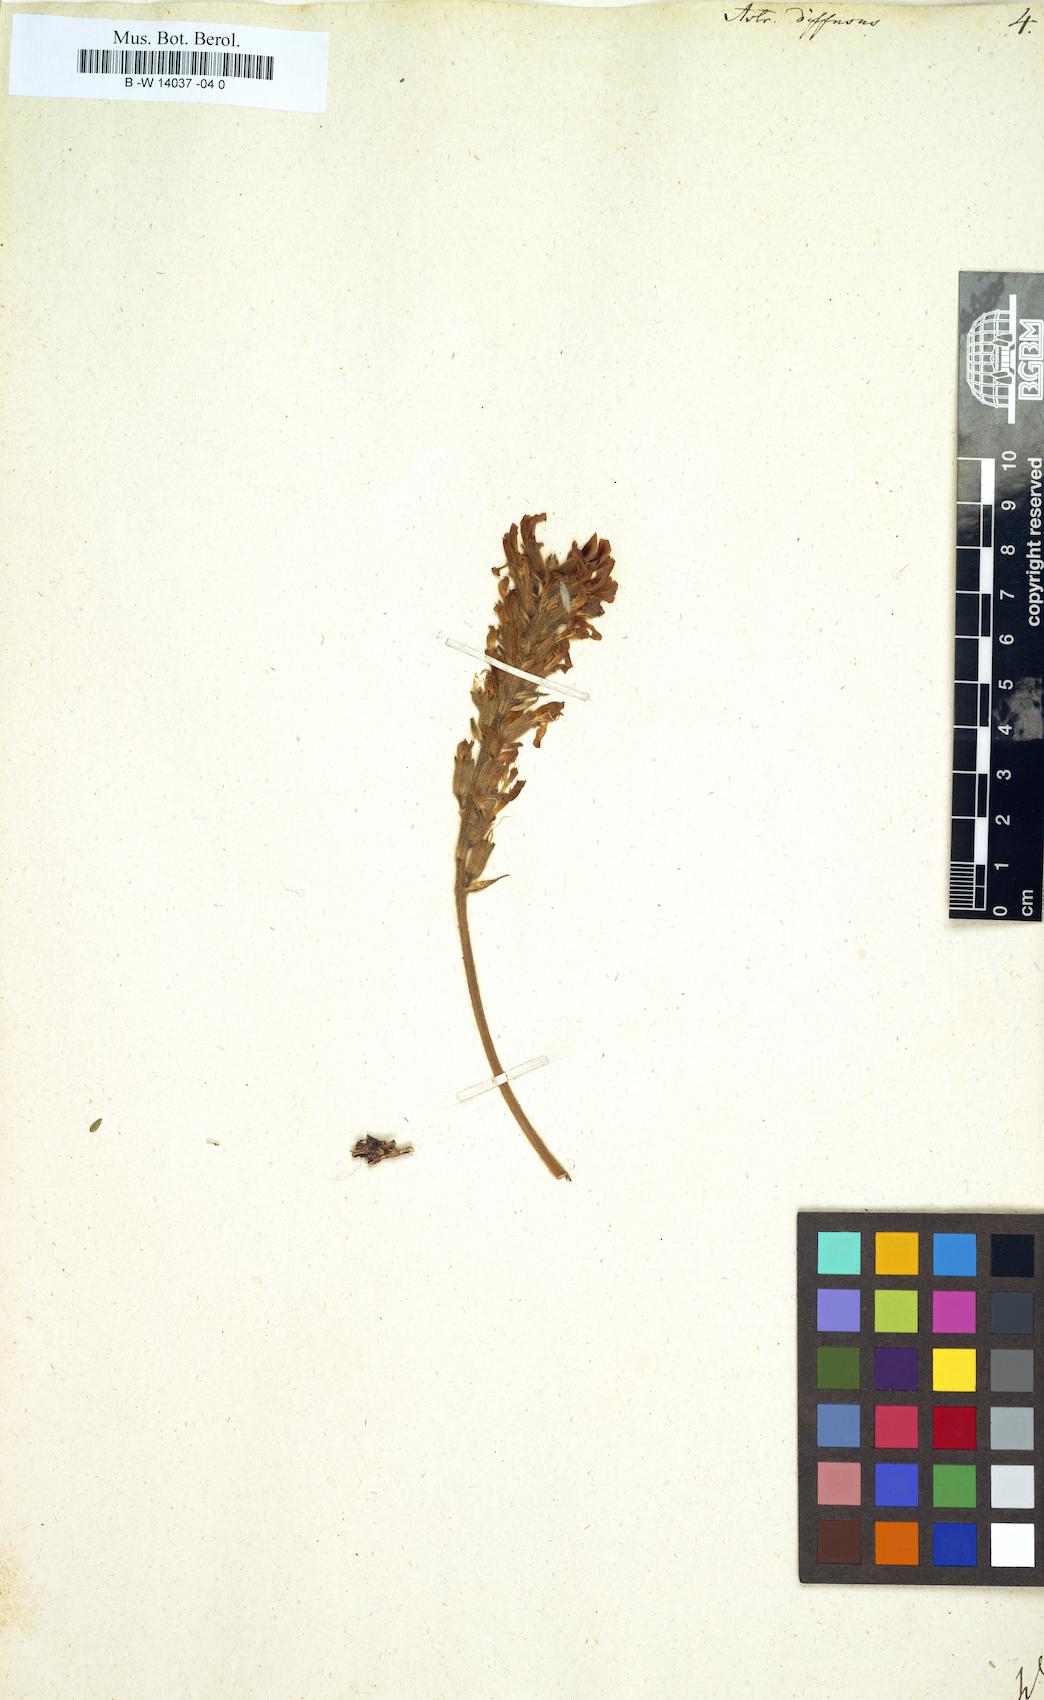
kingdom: Plantae
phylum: Tracheophyta
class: Magnoliopsida
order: Fabales
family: Fabaceae
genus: Astragalus
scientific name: Astragalus dolichophyllus
